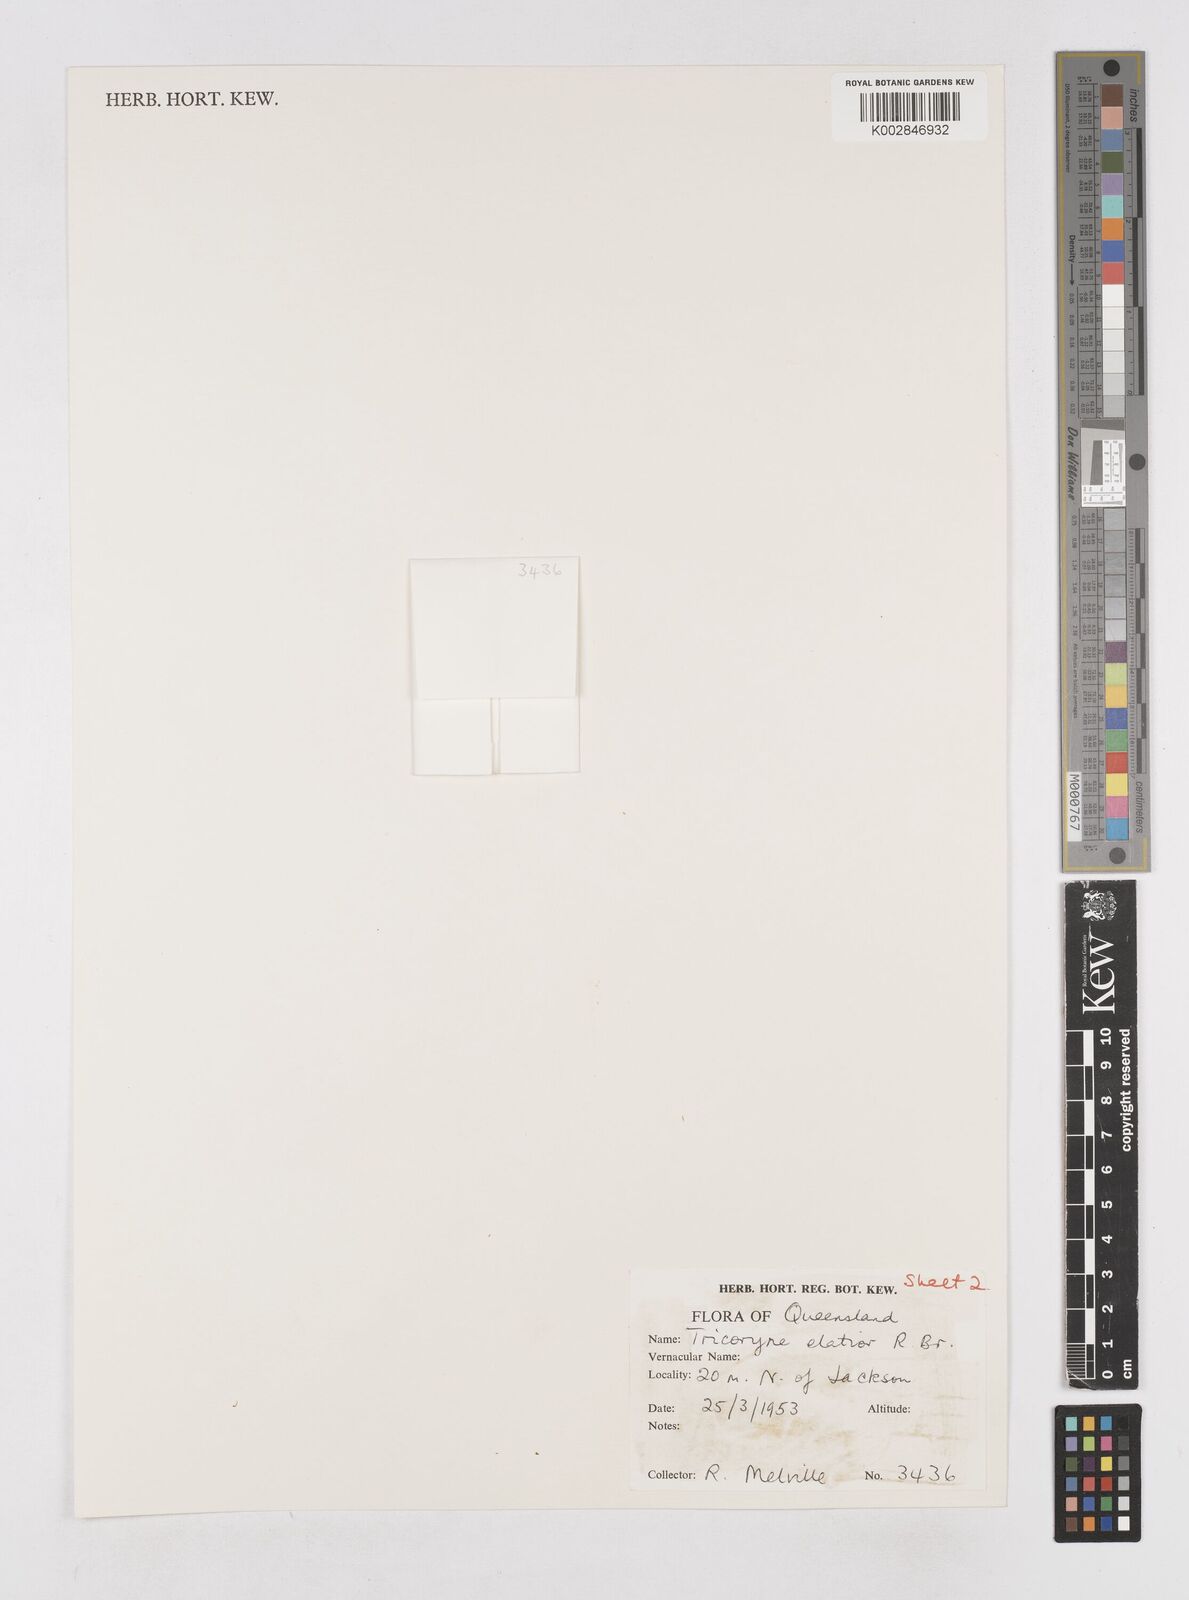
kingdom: Plantae
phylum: Tracheophyta
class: Liliopsida
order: Asparagales
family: Asphodelaceae
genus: Tricoryne
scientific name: Tricoryne elatior
